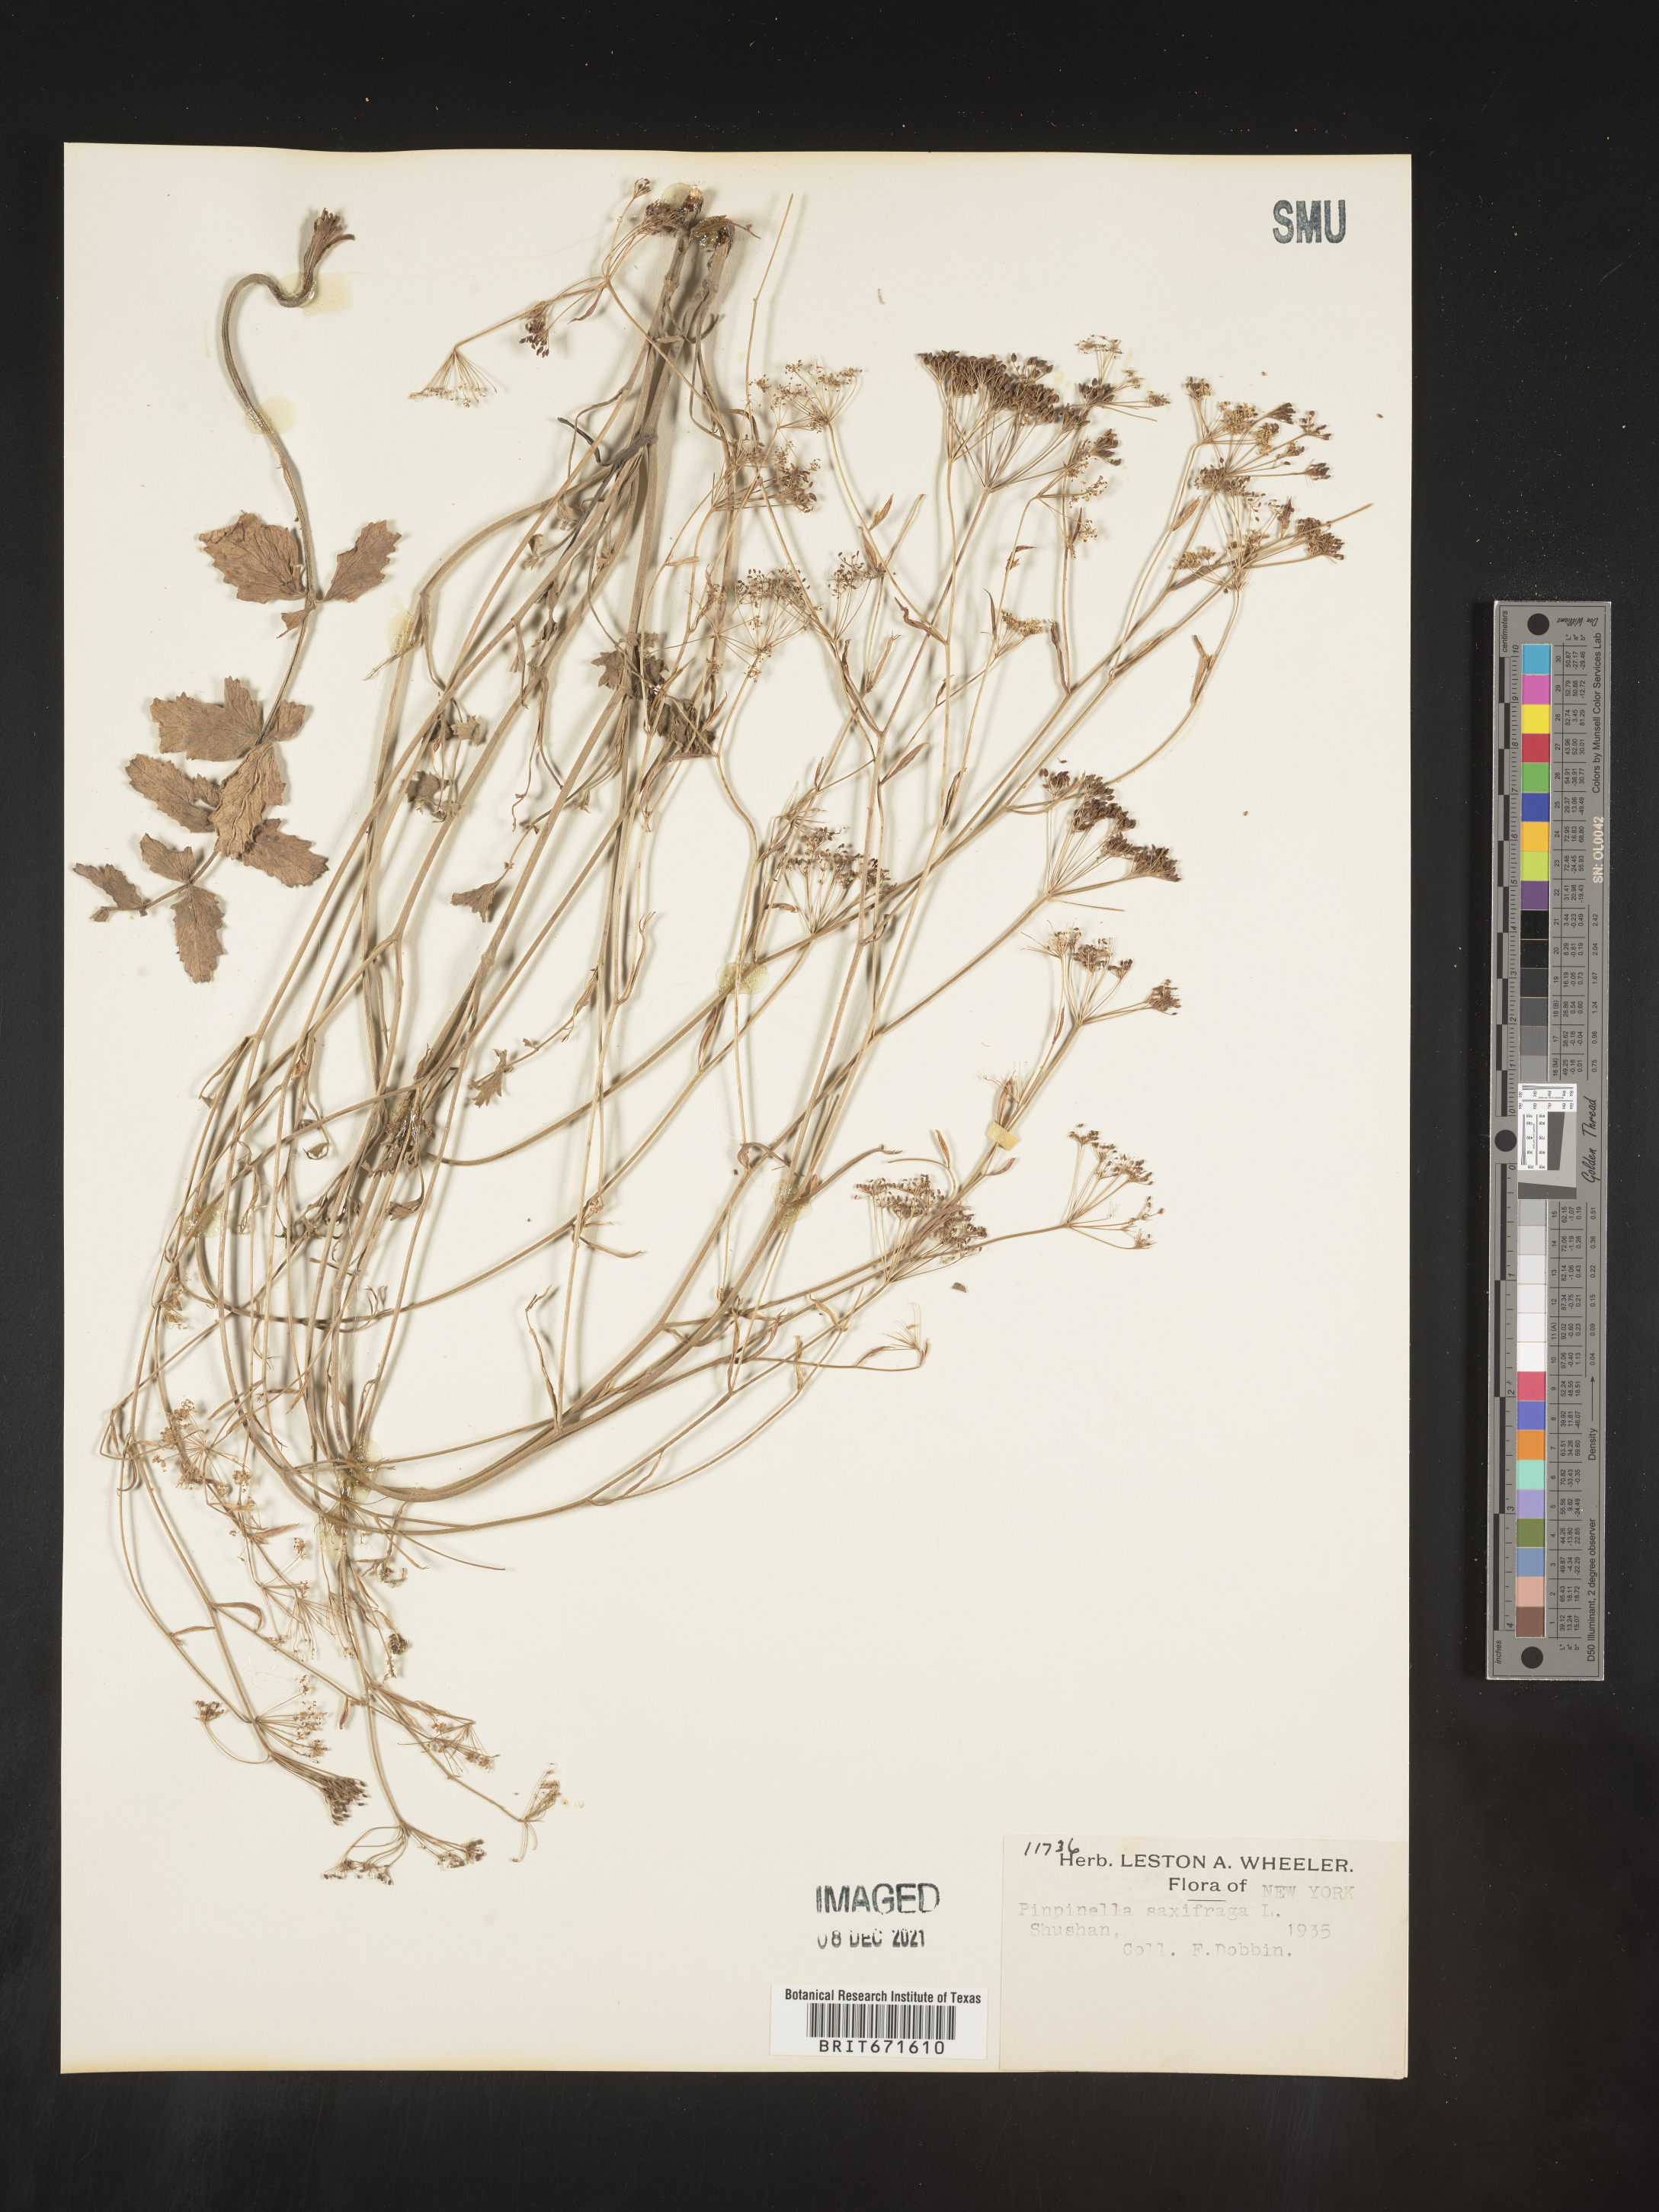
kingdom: Plantae
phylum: Tracheophyta
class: Magnoliopsida
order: Apiales
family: Apiaceae
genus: Pimpinella
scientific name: Pimpinella
